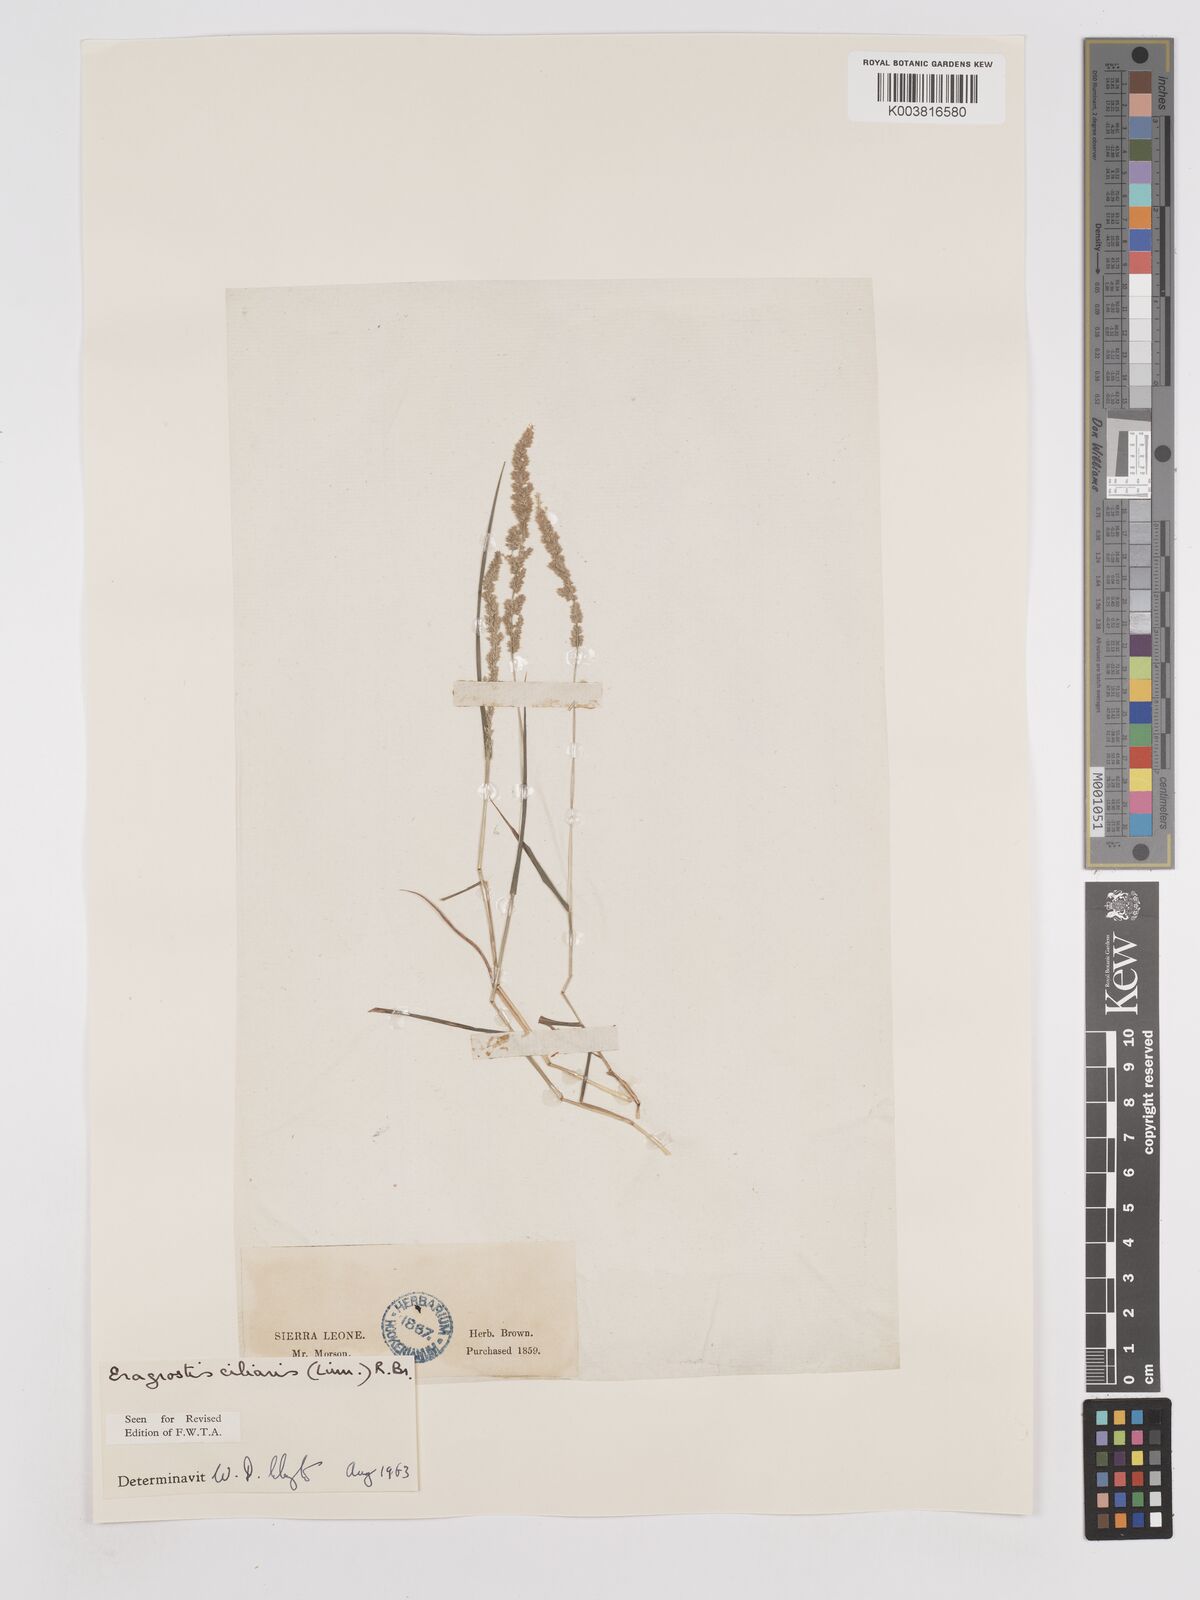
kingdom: Plantae
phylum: Tracheophyta
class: Liliopsida
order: Poales
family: Poaceae
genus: Eragrostis
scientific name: Eragrostis ciliaris
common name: Gophertail lovegrass
